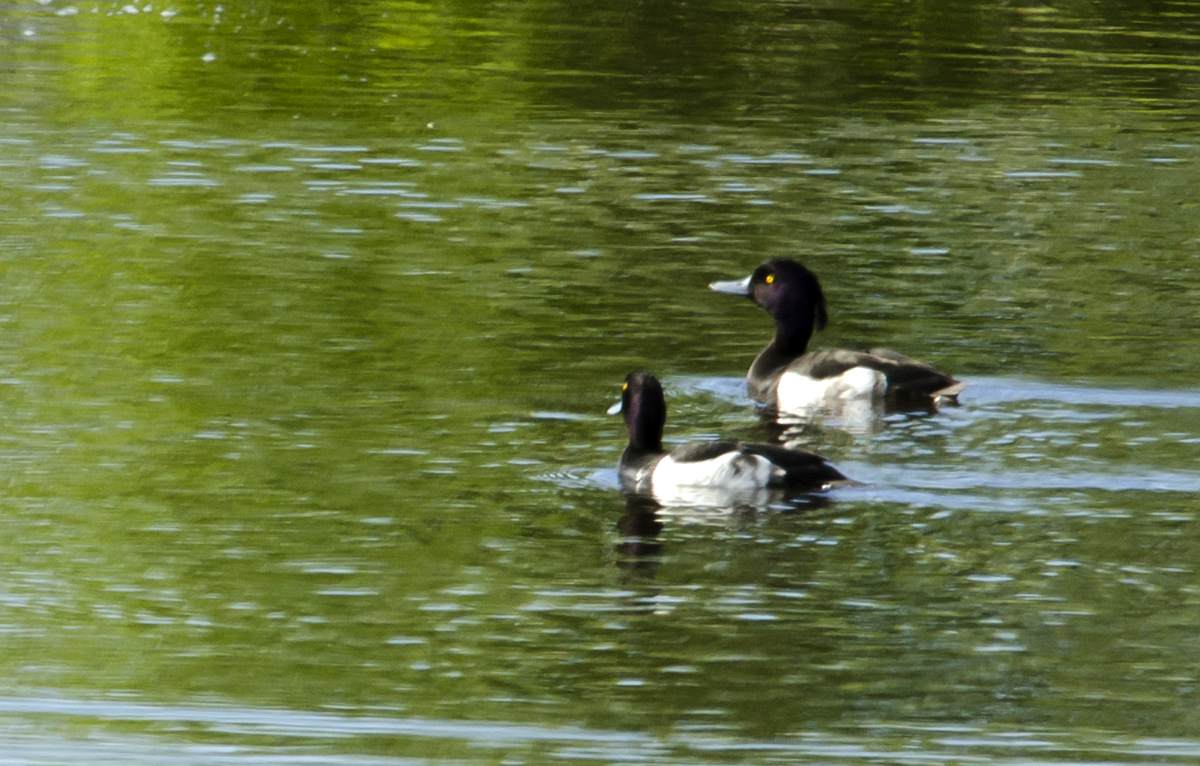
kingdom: Animalia
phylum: Chordata
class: Aves
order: Anseriformes
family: Anatidae
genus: Aythya
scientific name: Aythya fuligula
